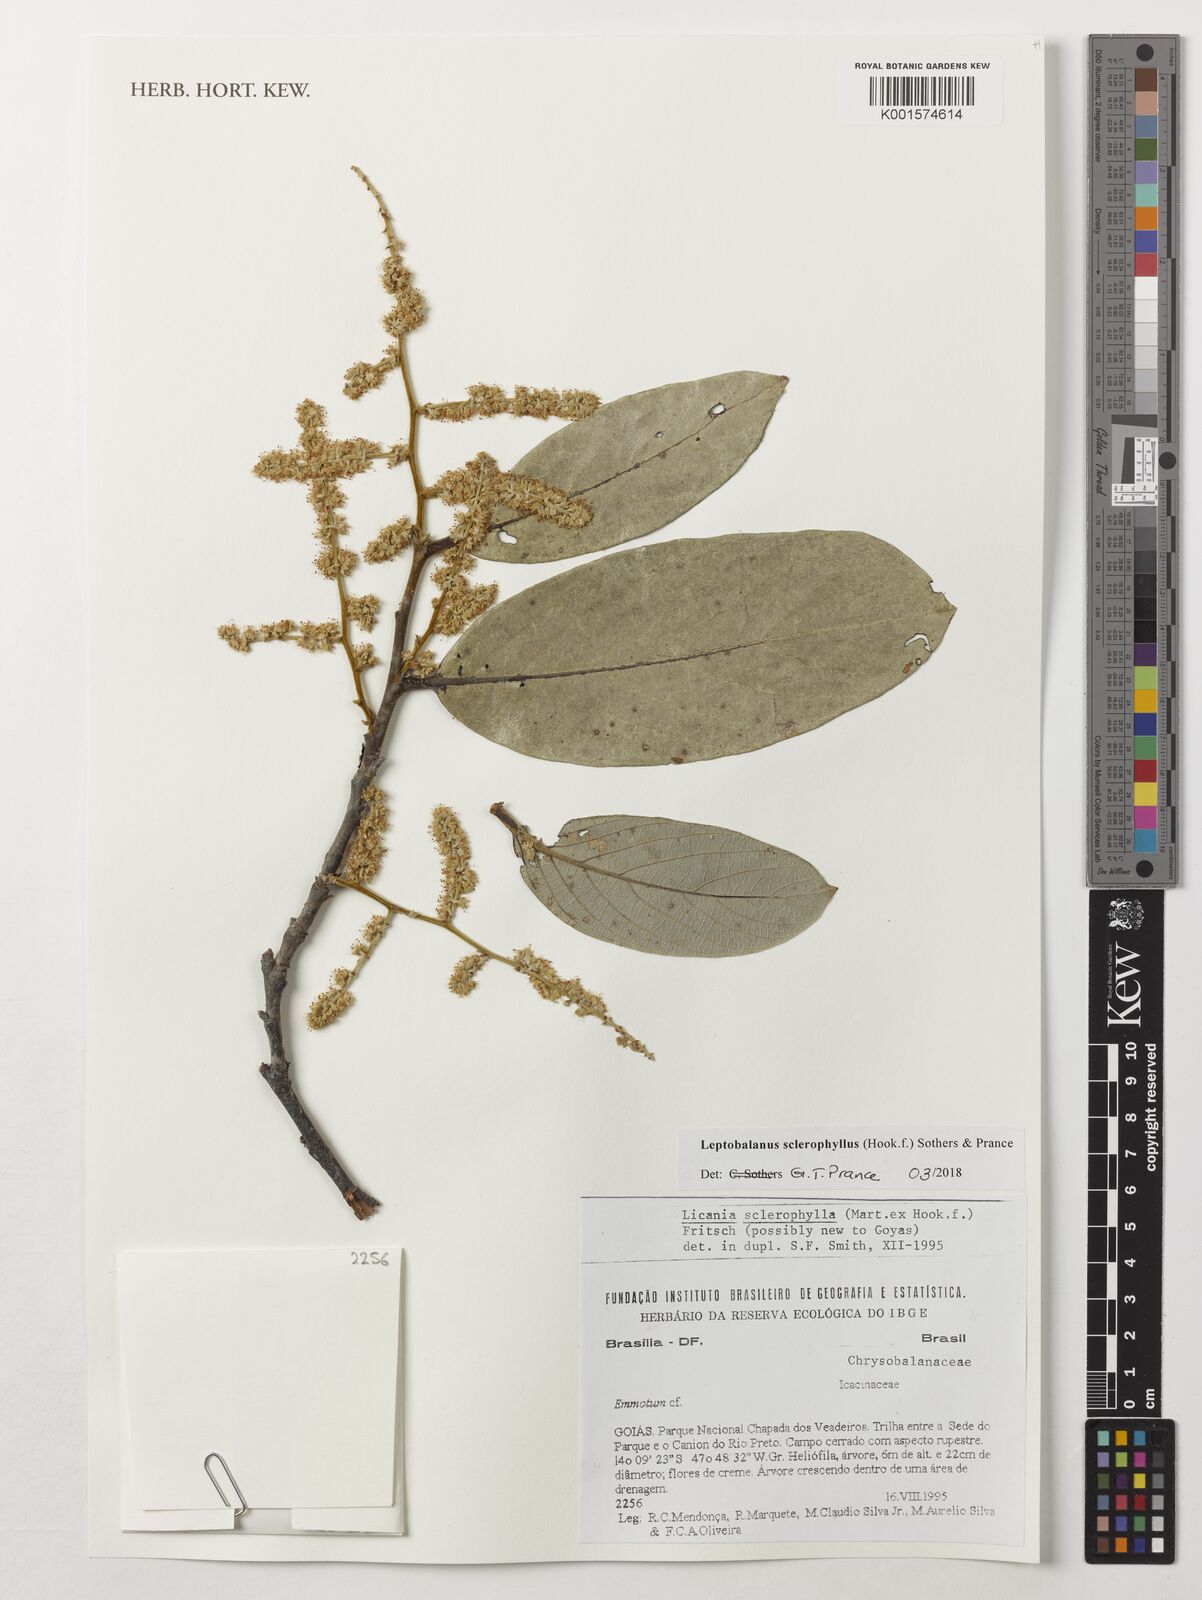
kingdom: Plantae
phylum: Tracheophyta
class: Magnoliopsida
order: Malpighiales
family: Chrysobalanaceae
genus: Leptobalanus
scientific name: Leptobalanus sclerophyllus
